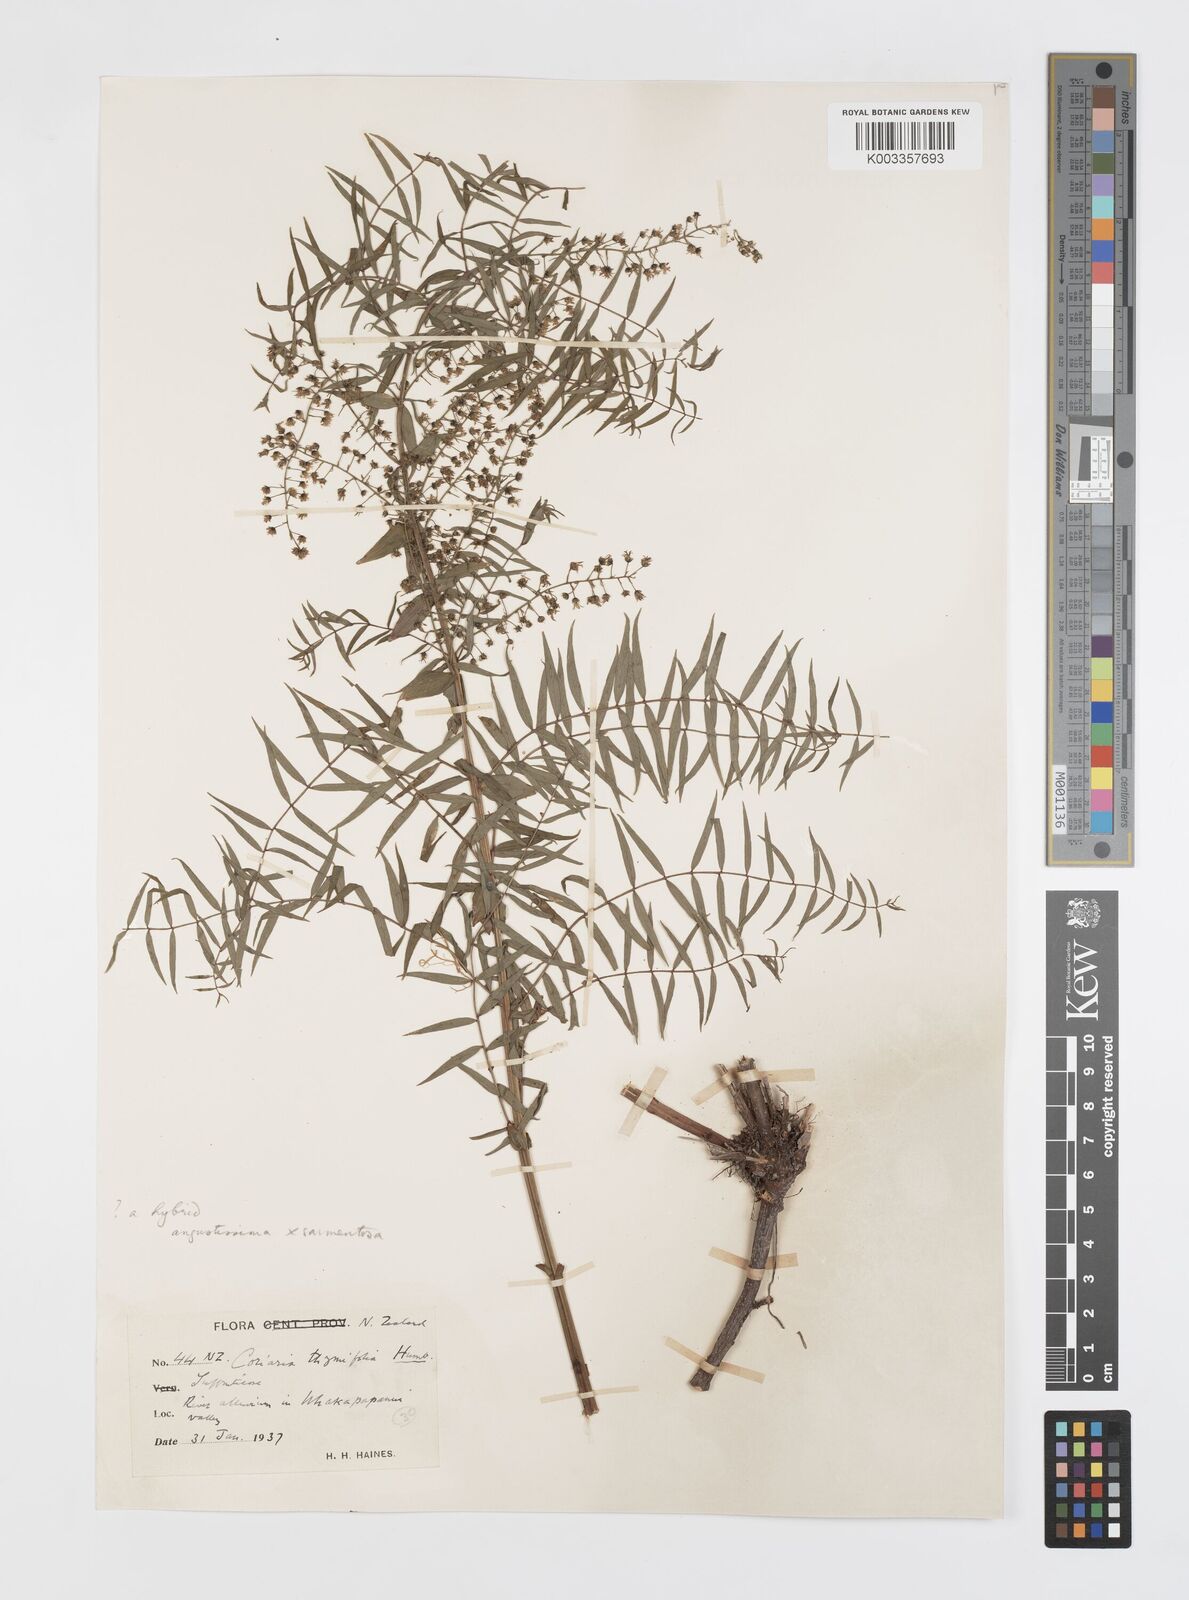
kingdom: Plantae
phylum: Tracheophyta
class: Magnoliopsida
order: Cucurbitales
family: Coriariaceae
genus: Coriaria
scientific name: Coriaria lurida
